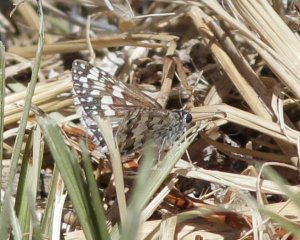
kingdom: Animalia
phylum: Arthropoda
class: Insecta
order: Lepidoptera
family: Hesperiidae
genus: Pyrgus
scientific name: Pyrgus communis
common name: Common Checkered-Skipper
